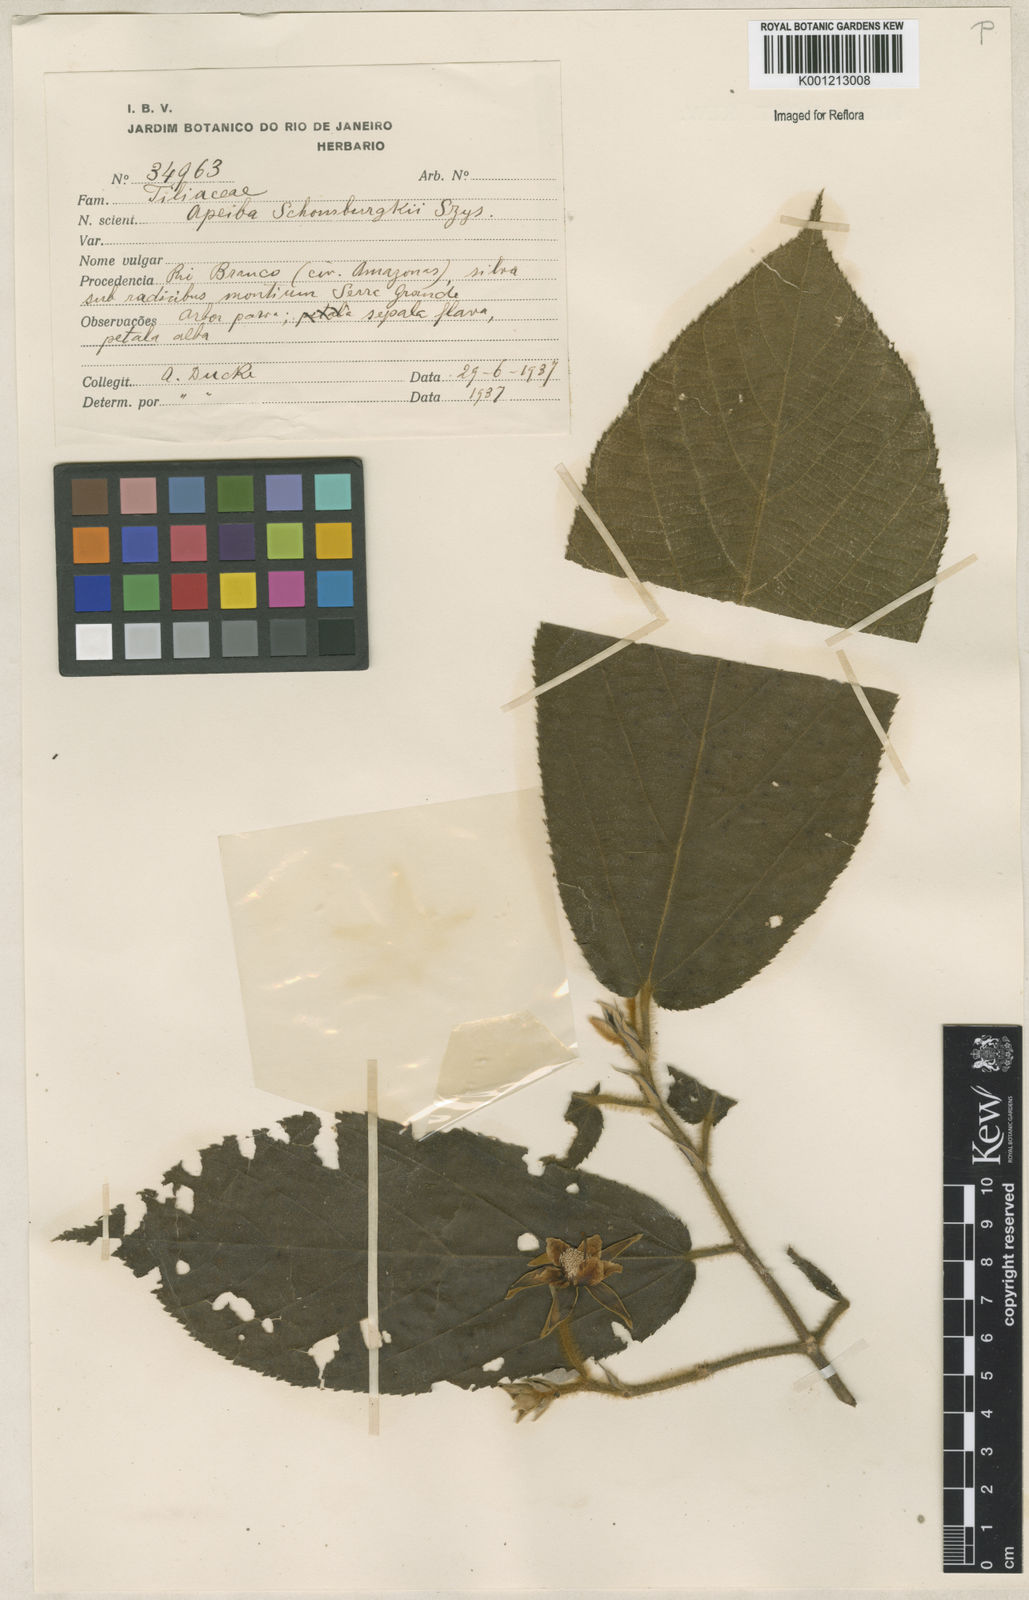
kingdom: Plantae
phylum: Tracheophyta
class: Magnoliopsida
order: Malvales
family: Malvaceae
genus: Apeiba
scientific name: Apeiba schomburgkii
